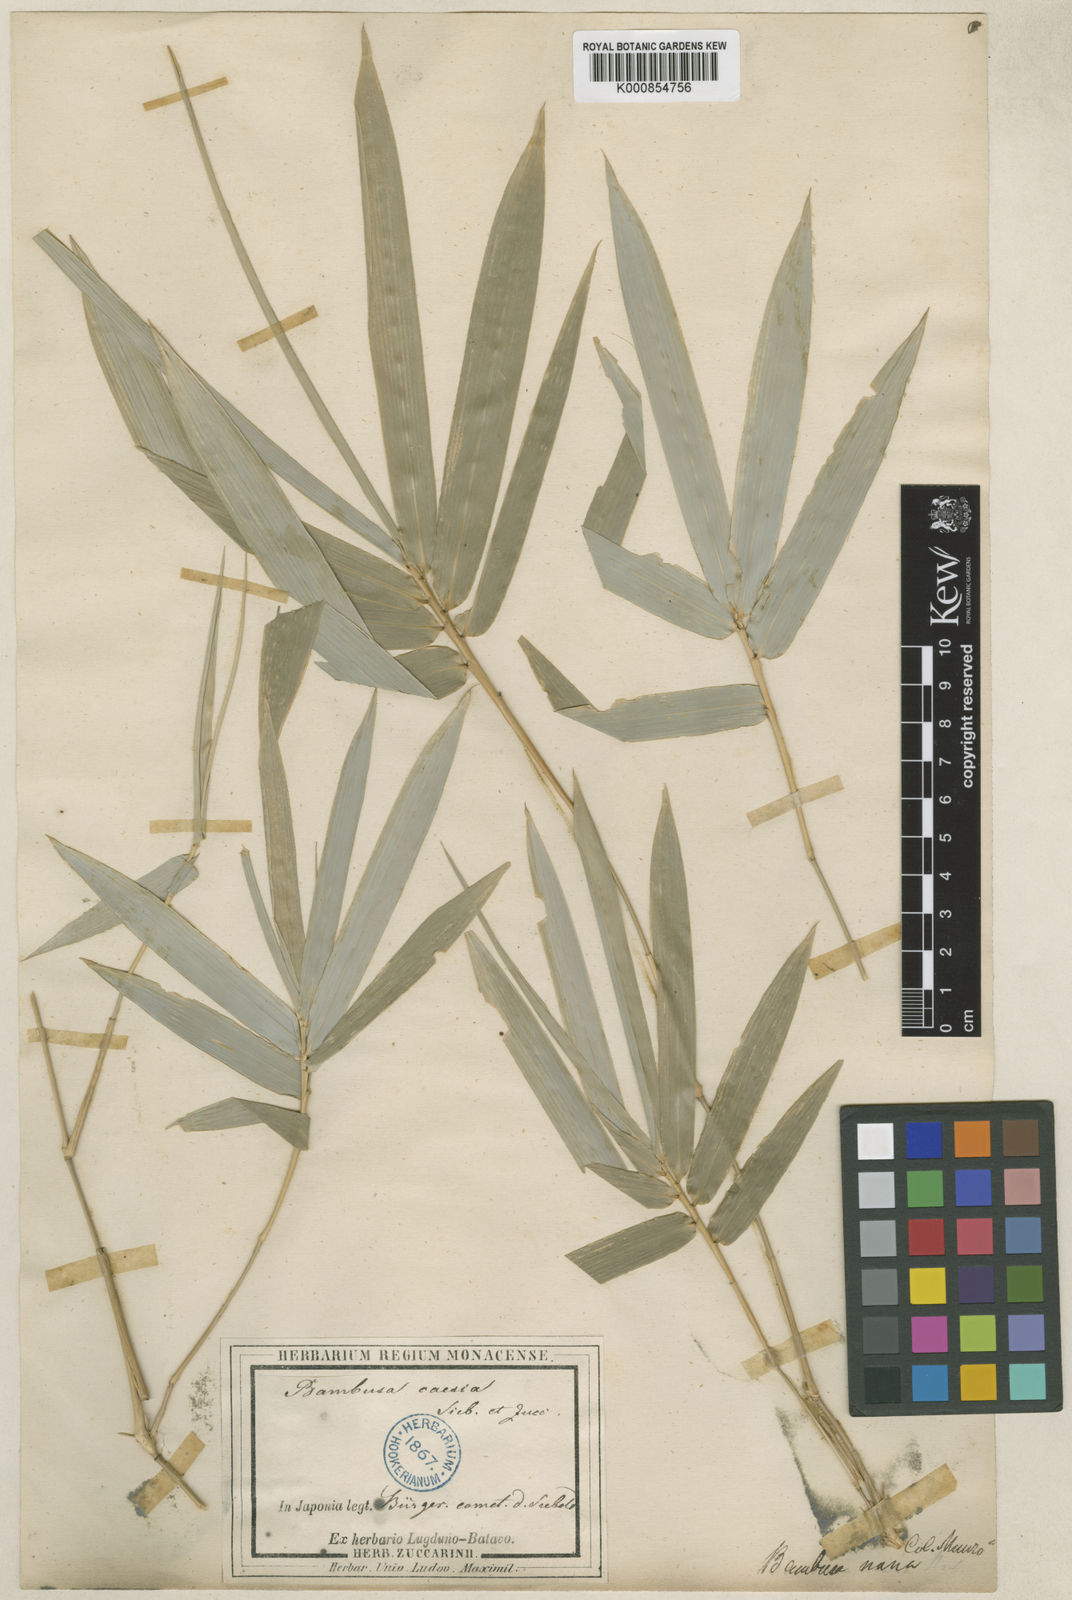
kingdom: Plantae
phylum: Tracheophyta
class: Liliopsida
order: Poales
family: Poaceae
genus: Bambusa
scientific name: Bambusa multiplex
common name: Hedge bamboo
